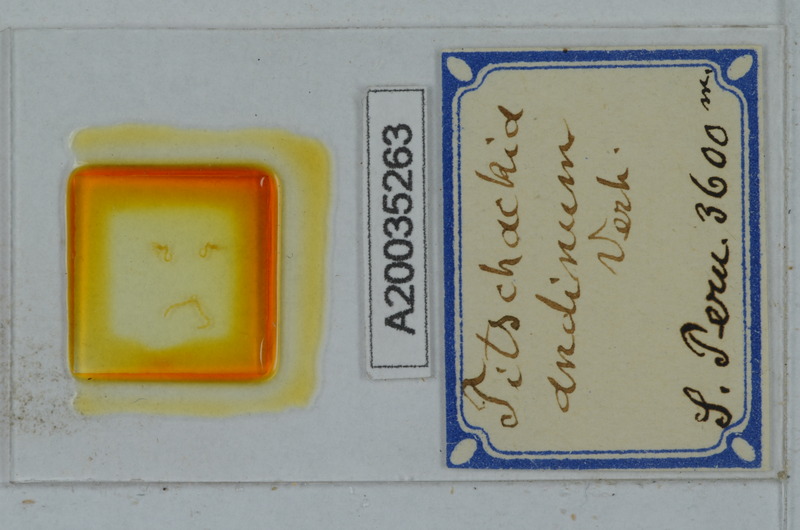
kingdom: Animalia
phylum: Arthropoda
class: Diplopoda
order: Polydesmida
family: Paradoxosomatidae
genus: Iulidesmus
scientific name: Iulidesmus andinus
